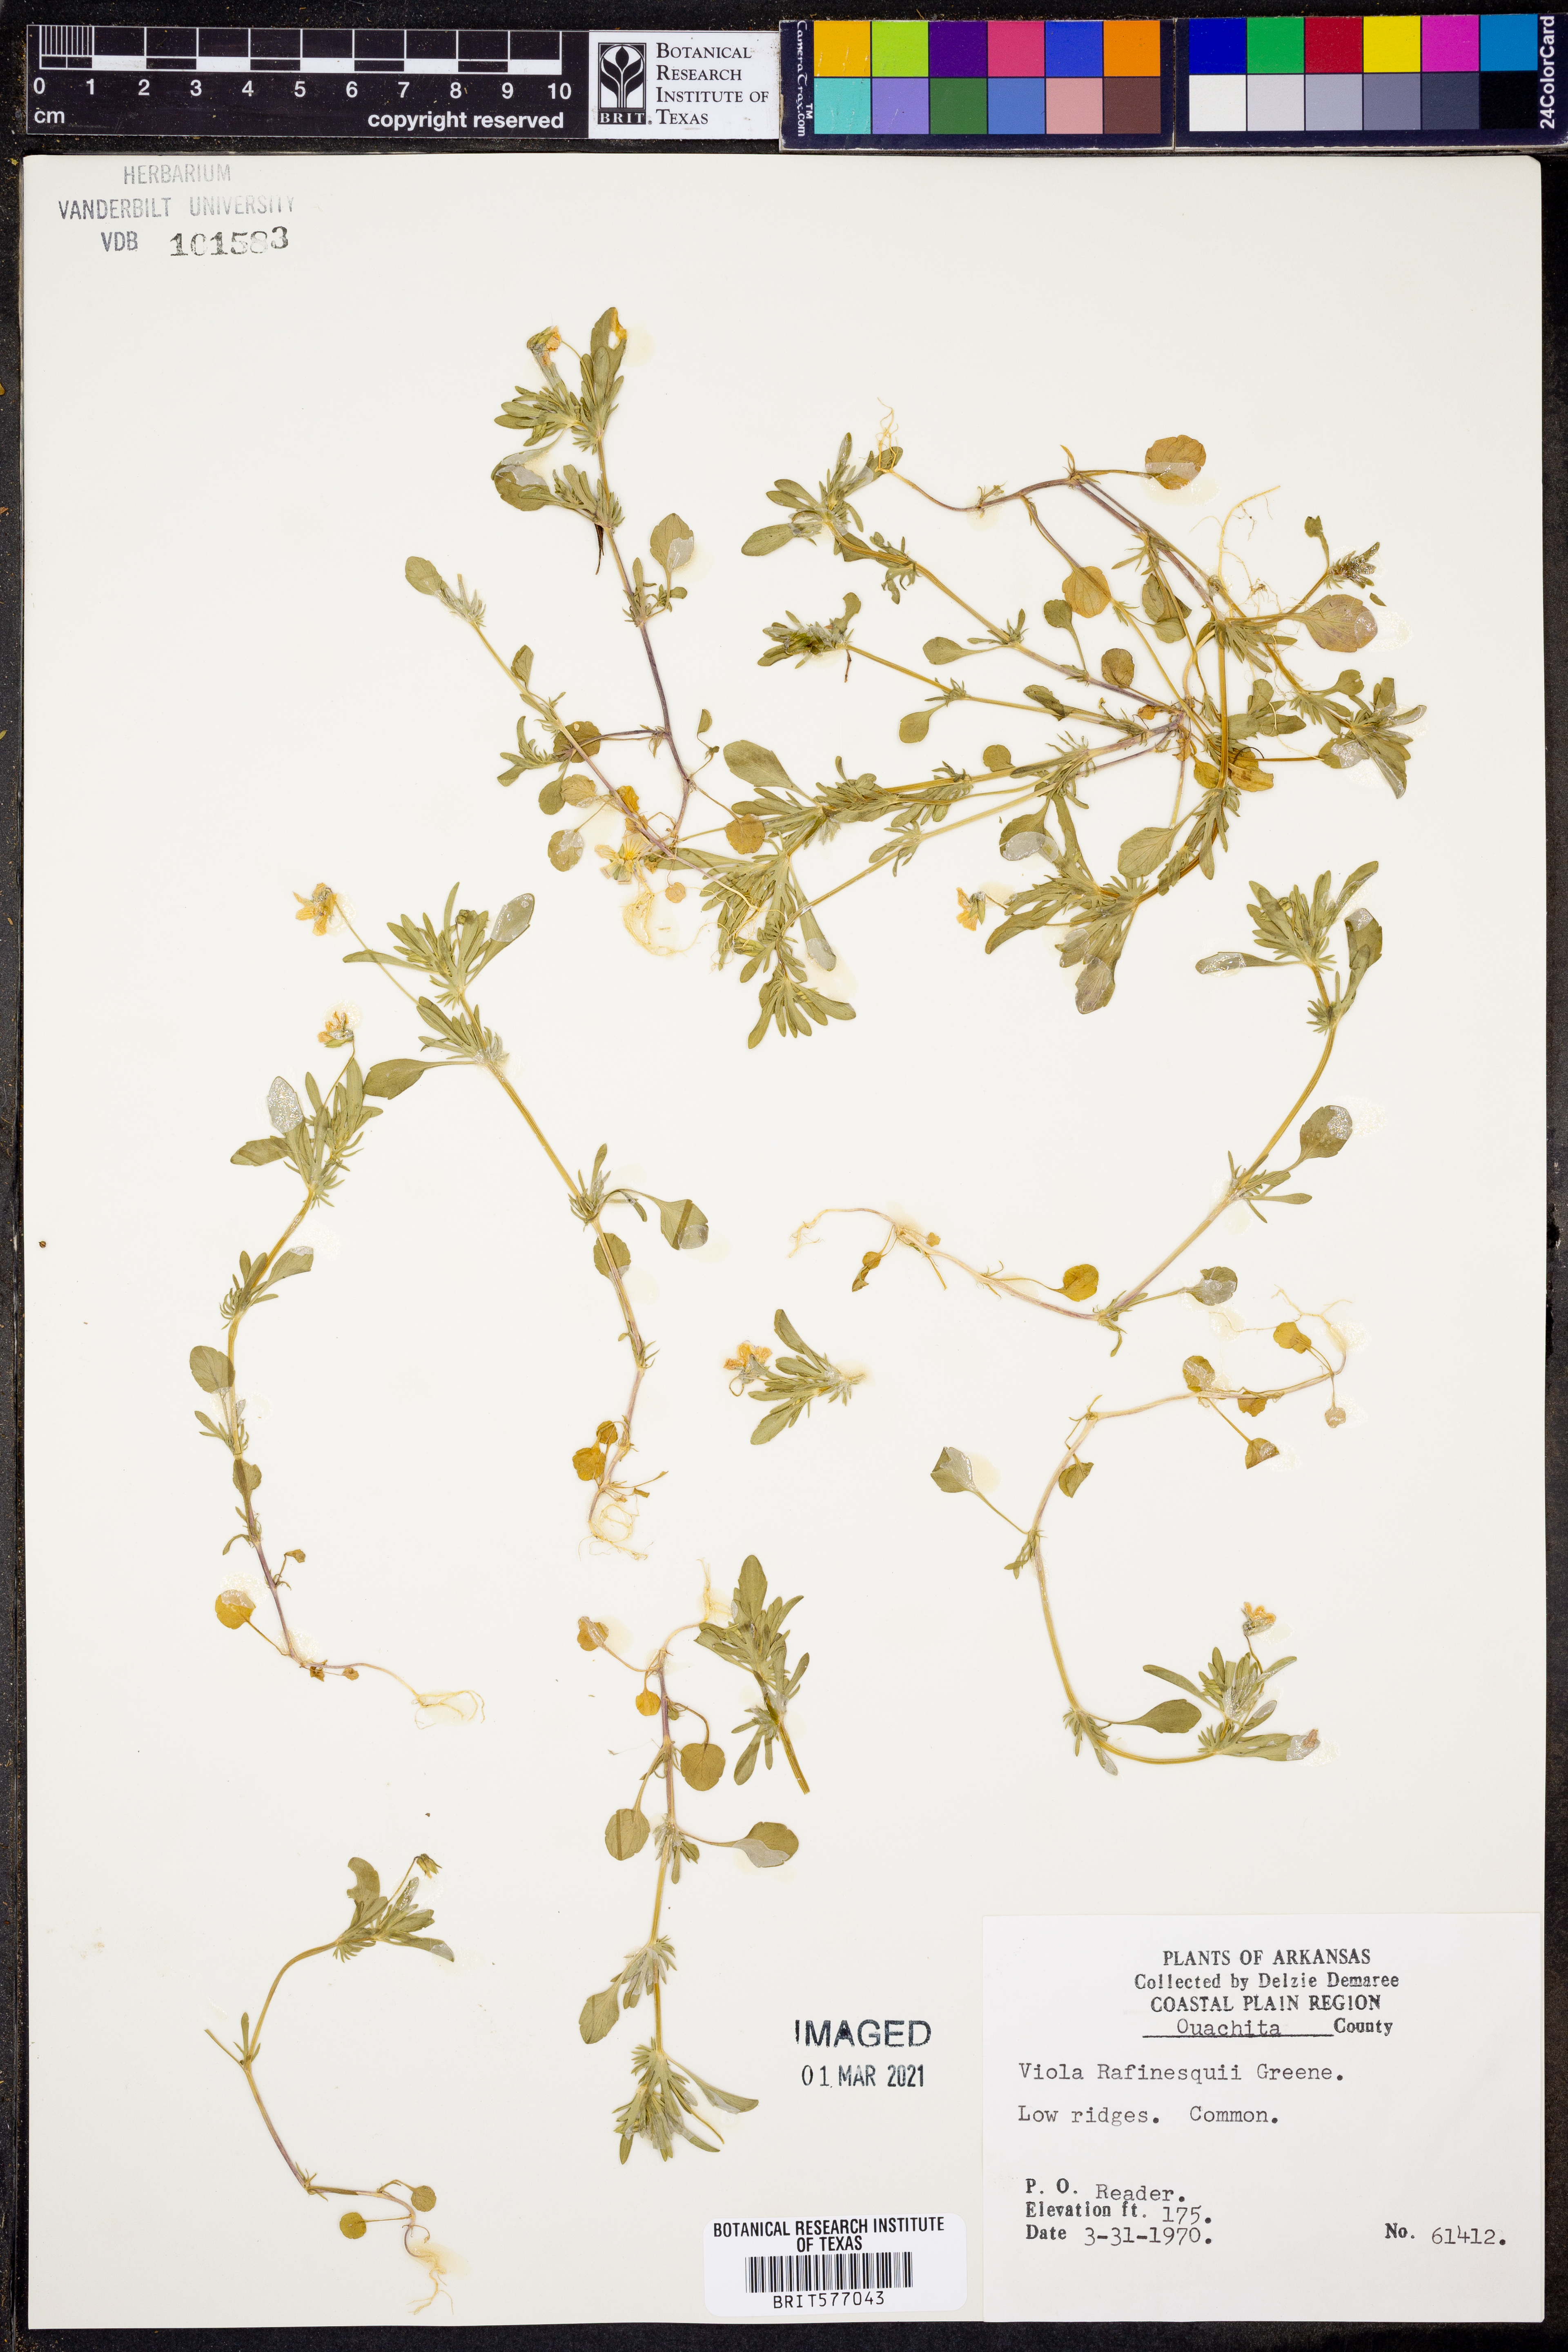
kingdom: Plantae
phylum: Tracheophyta
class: Magnoliopsida
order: Malpighiales
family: Violaceae
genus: Viola
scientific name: Viola rafinesquei
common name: American field pansy
